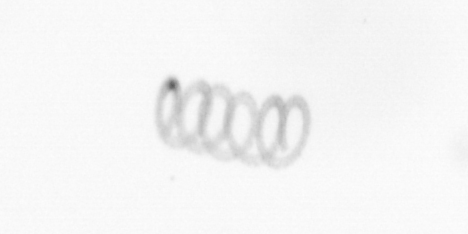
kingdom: Chromista
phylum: Ochrophyta
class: Bacillariophyceae
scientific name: Bacillariophyceae
